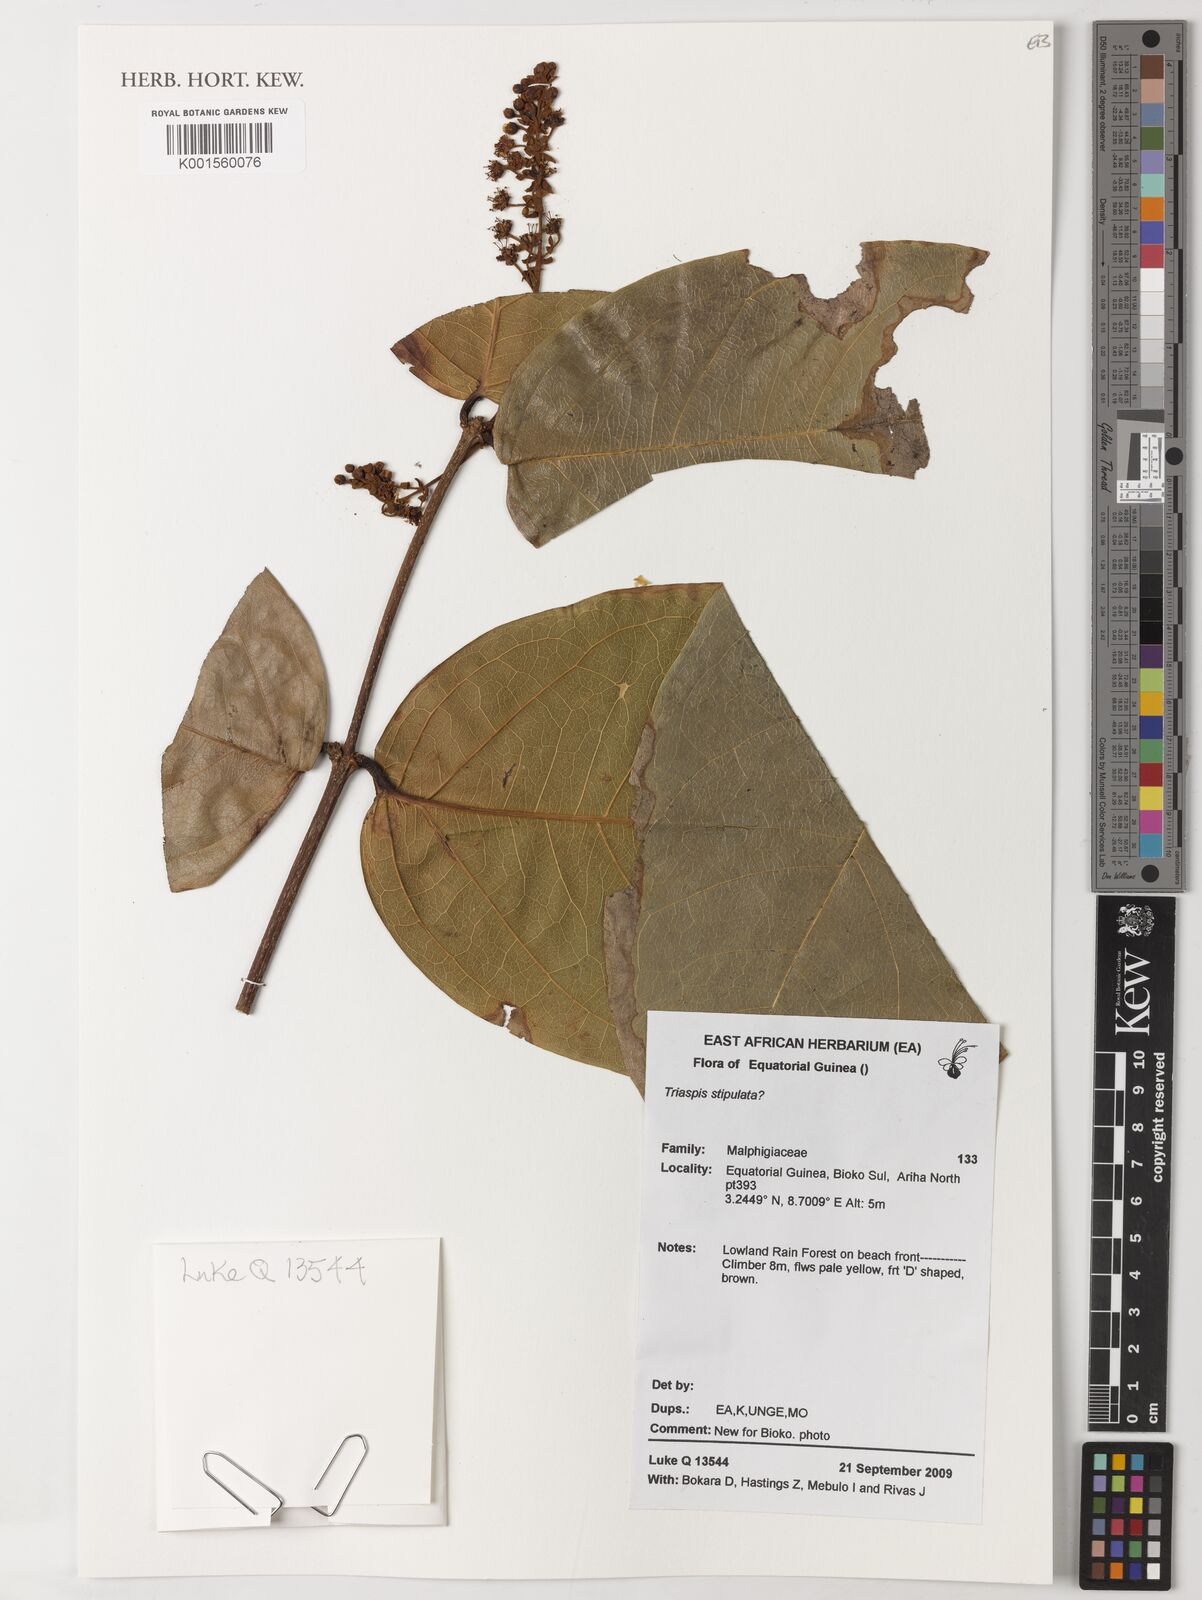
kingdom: Plantae
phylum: Tracheophyta
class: Magnoliopsida
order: Malpighiales
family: Malpighiaceae
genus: Triaspis
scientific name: Triaspis stipulata
